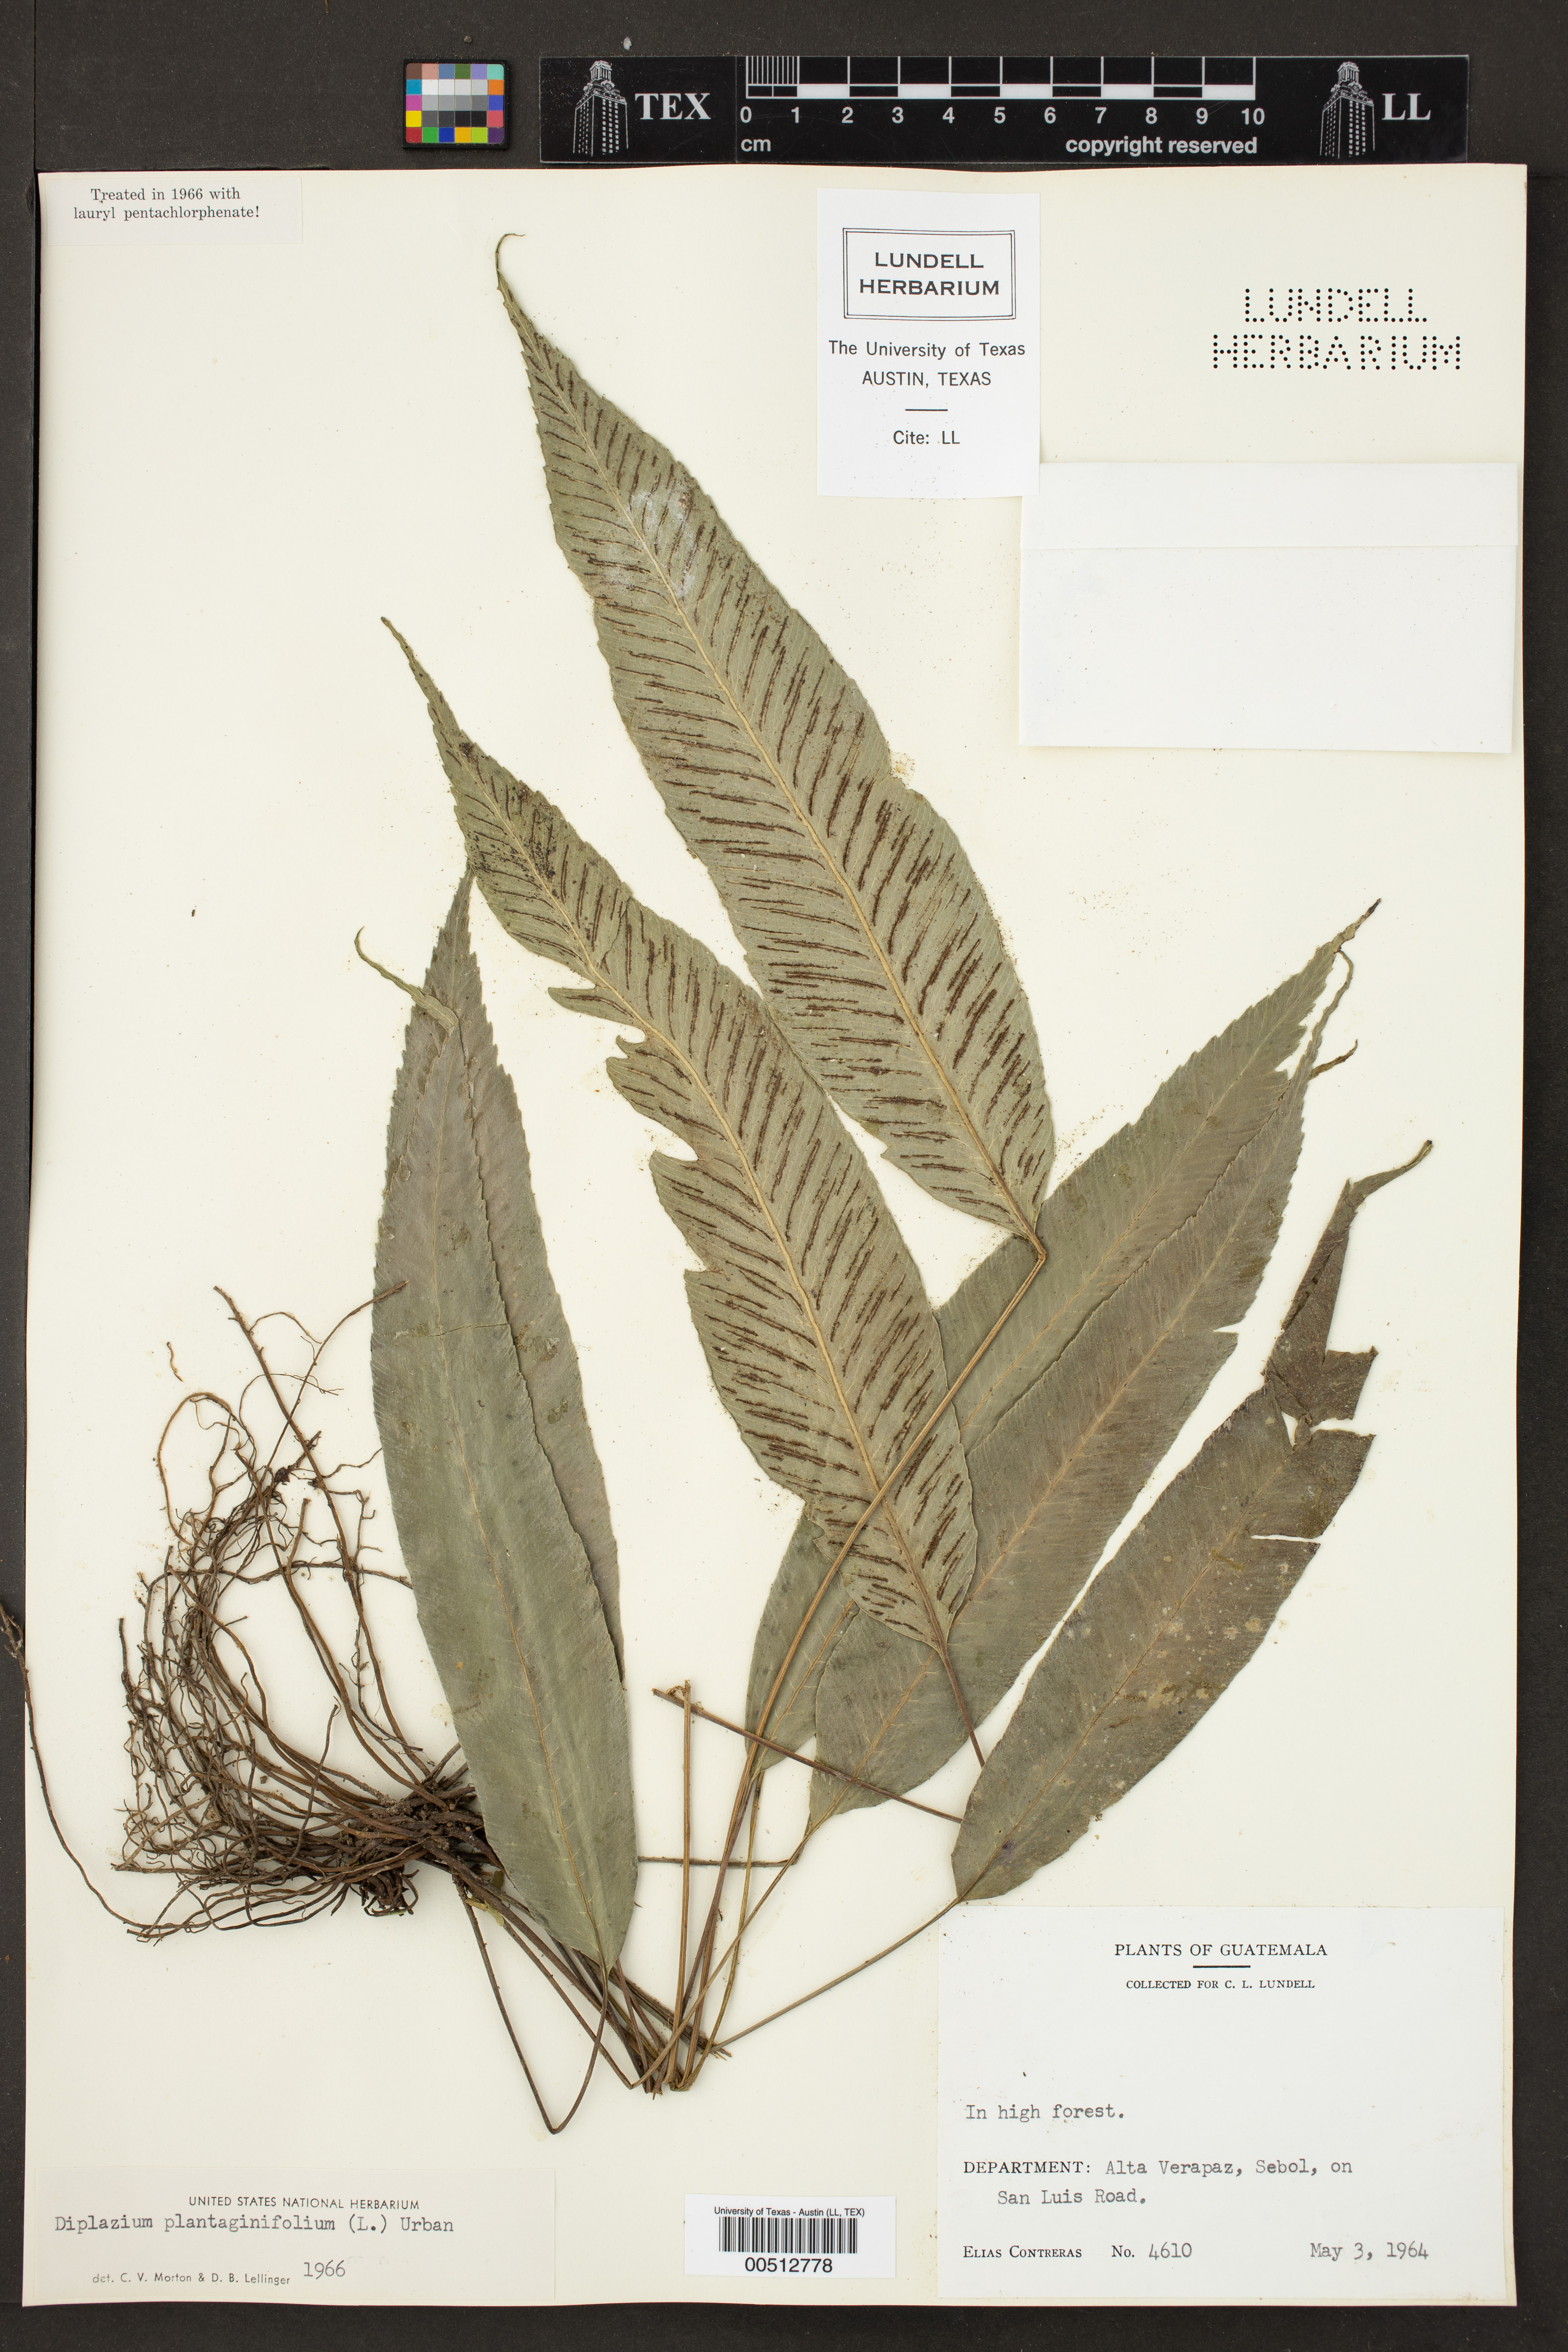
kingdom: Plantae
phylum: Tracheophyta
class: Polypodiopsida
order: Polypodiales
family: Athyriaceae
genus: Diplazium
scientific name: Diplazium plantaginifolium
